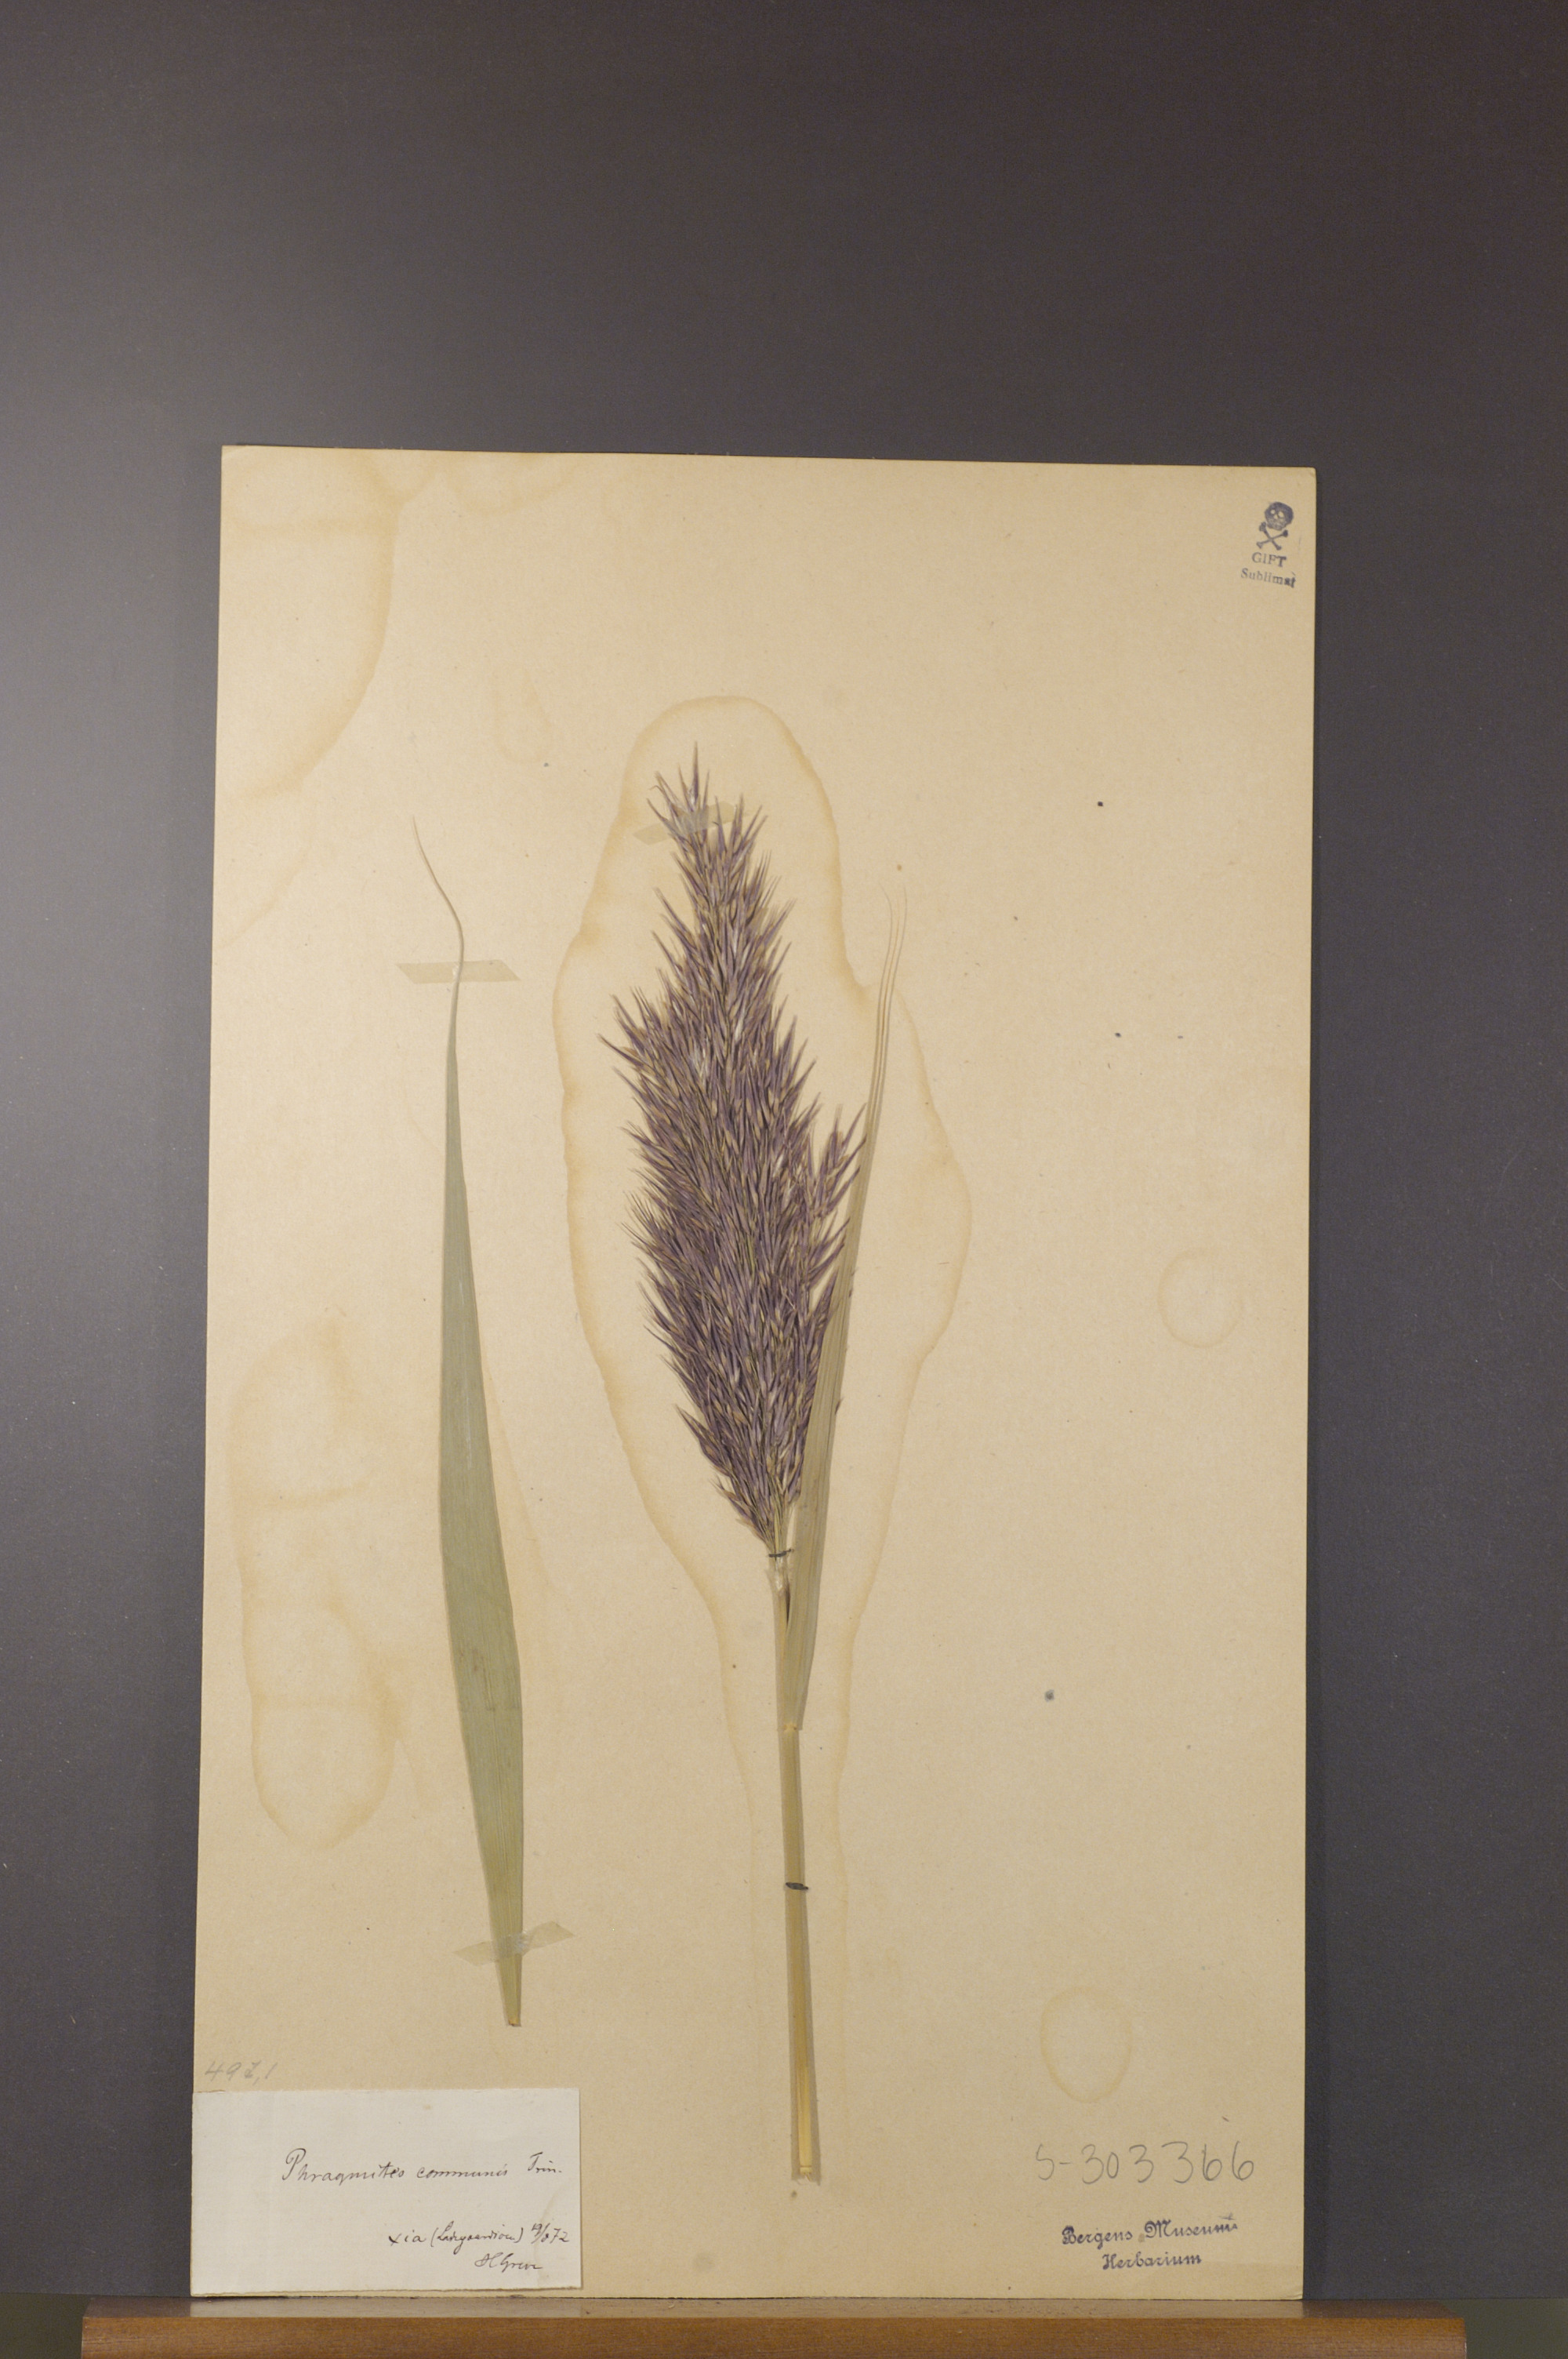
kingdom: Plantae
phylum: Tracheophyta
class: Liliopsida
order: Poales
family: Poaceae
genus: Phragmites
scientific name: Phragmites australis
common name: Common reed
